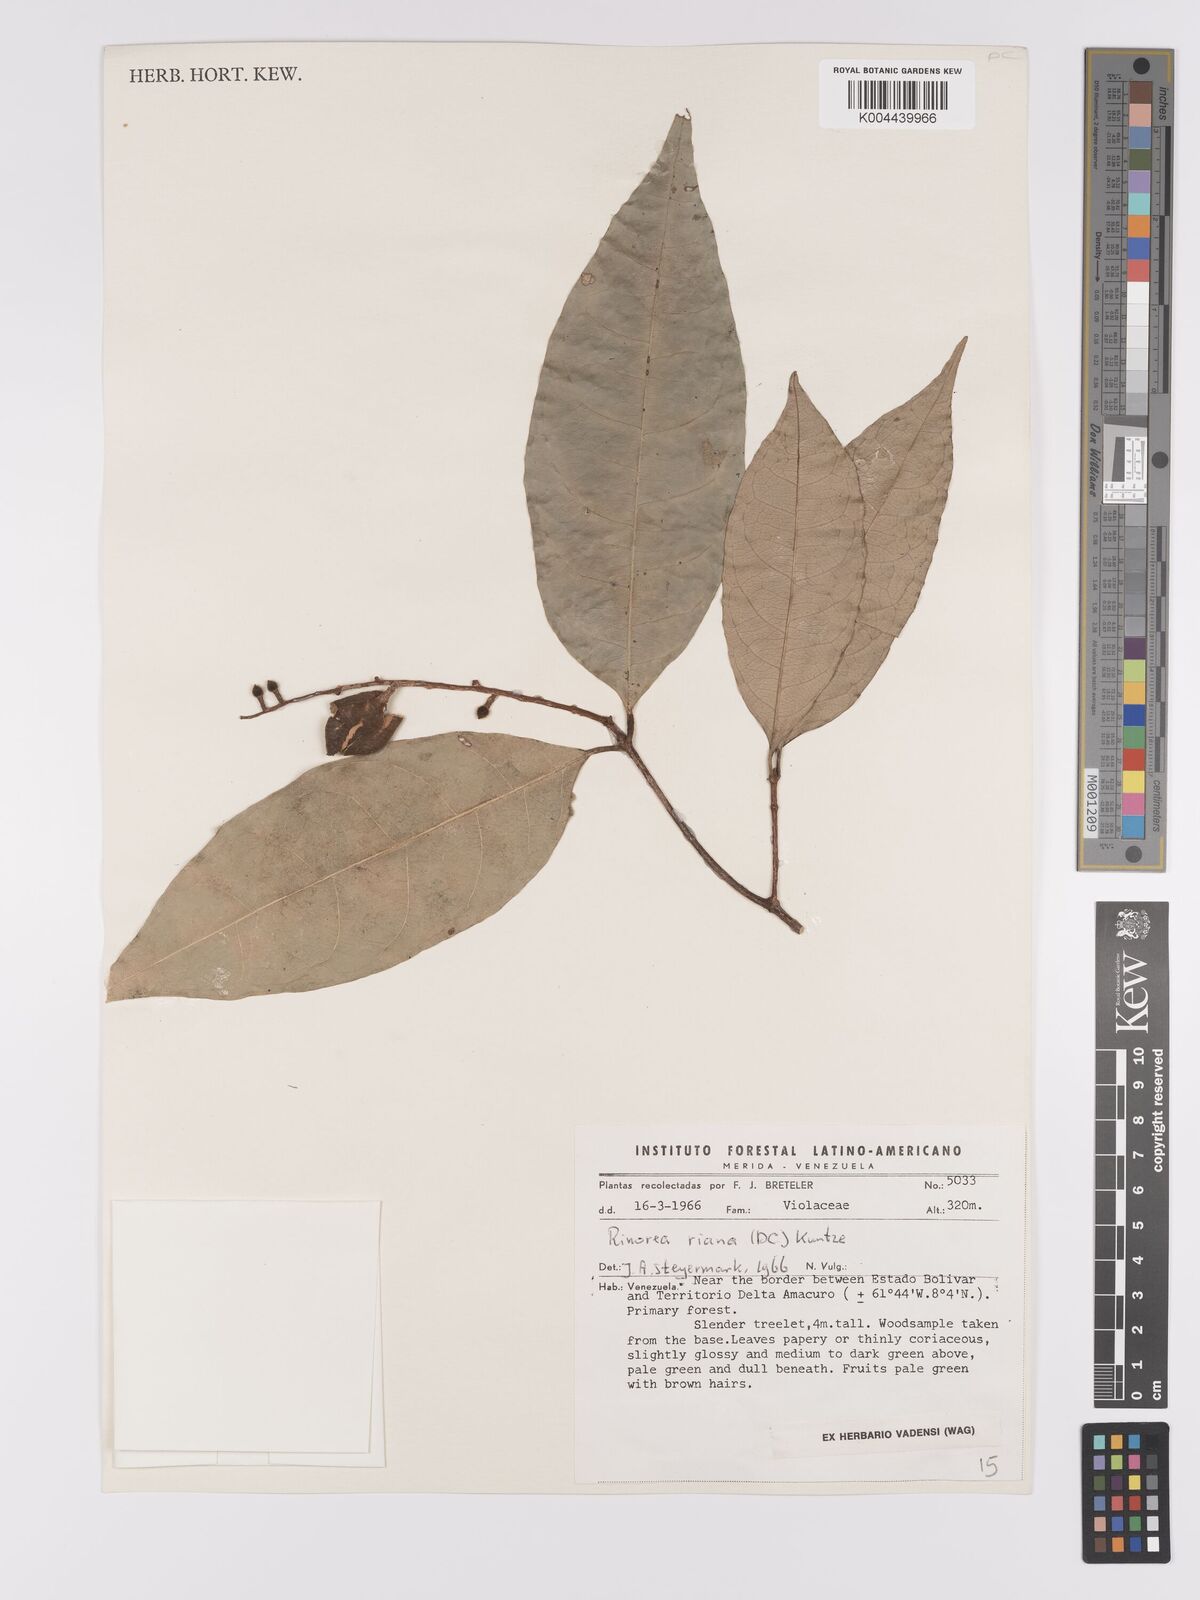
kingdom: Plantae
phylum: Tracheophyta
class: Magnoliopsida
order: Malpighiales
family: Violaceae
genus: Rinorea
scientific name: Rinorea riana
